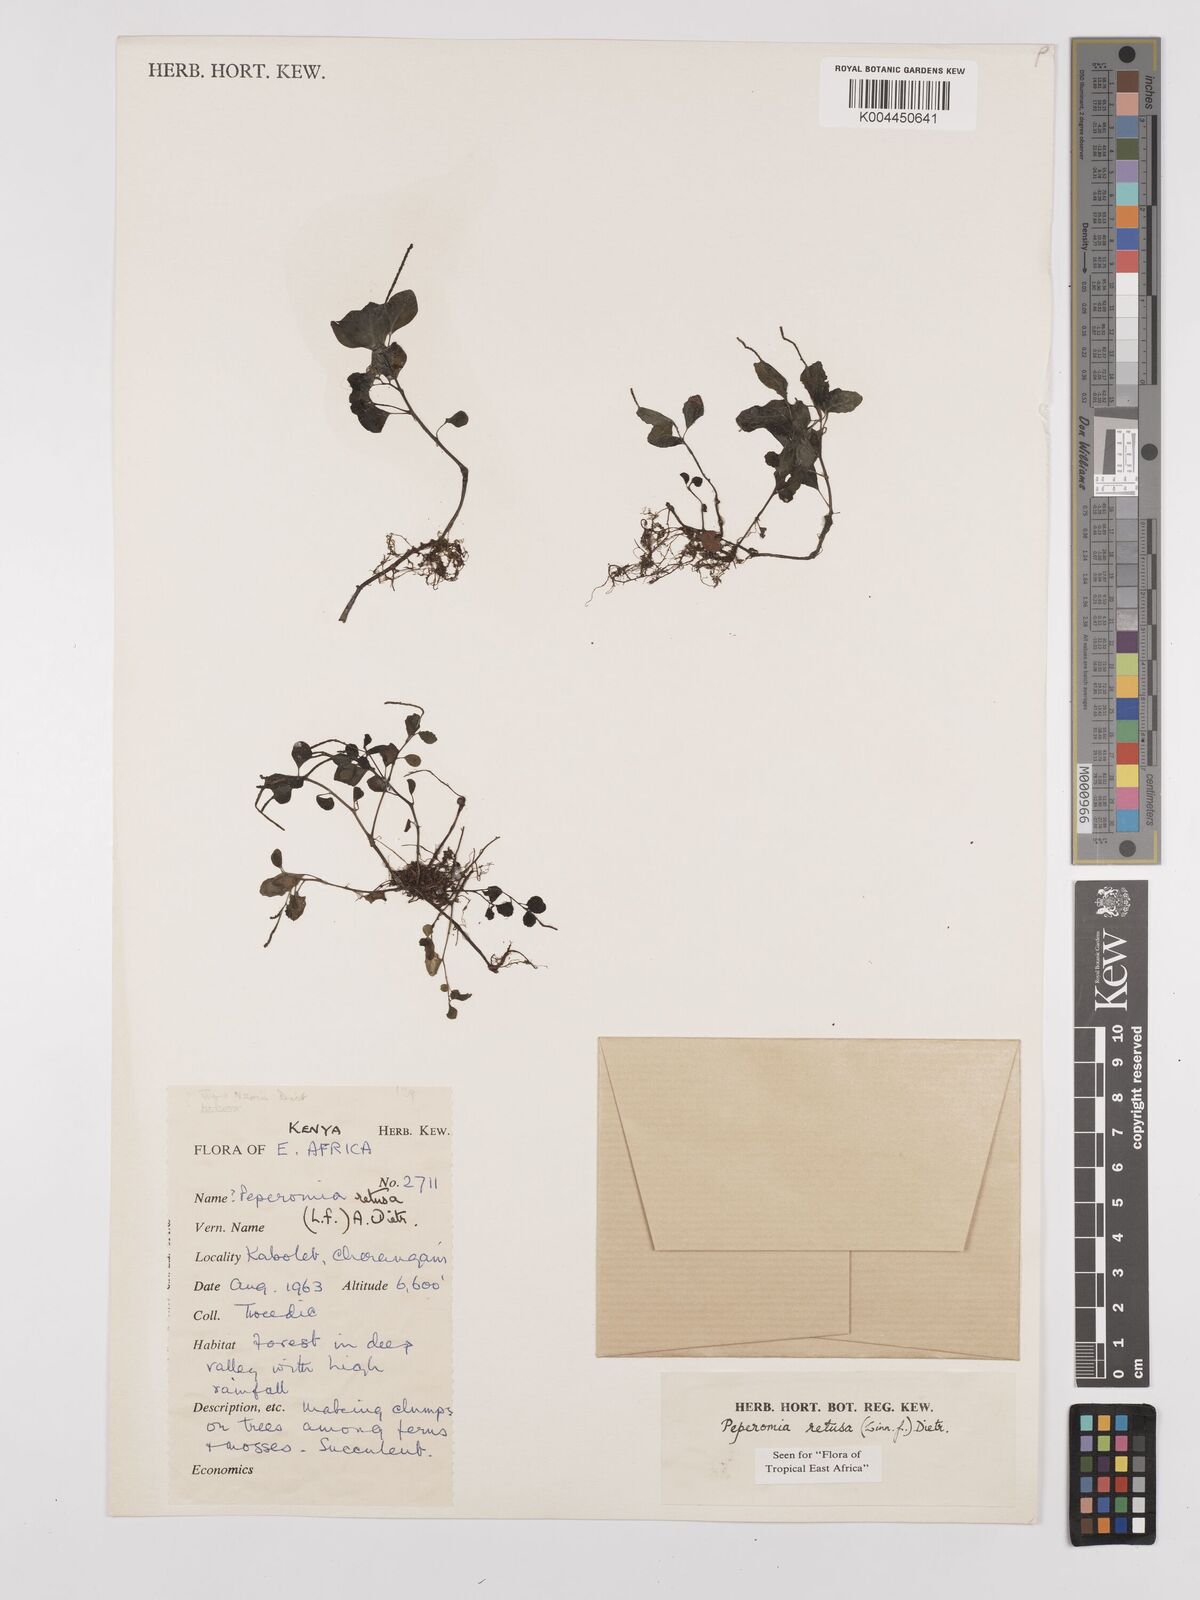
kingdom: Plantae
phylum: Tracheophyta
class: Magnoliopsida
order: Piperales
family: Piperaceae
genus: Peperomia
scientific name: Peperomia retusa
